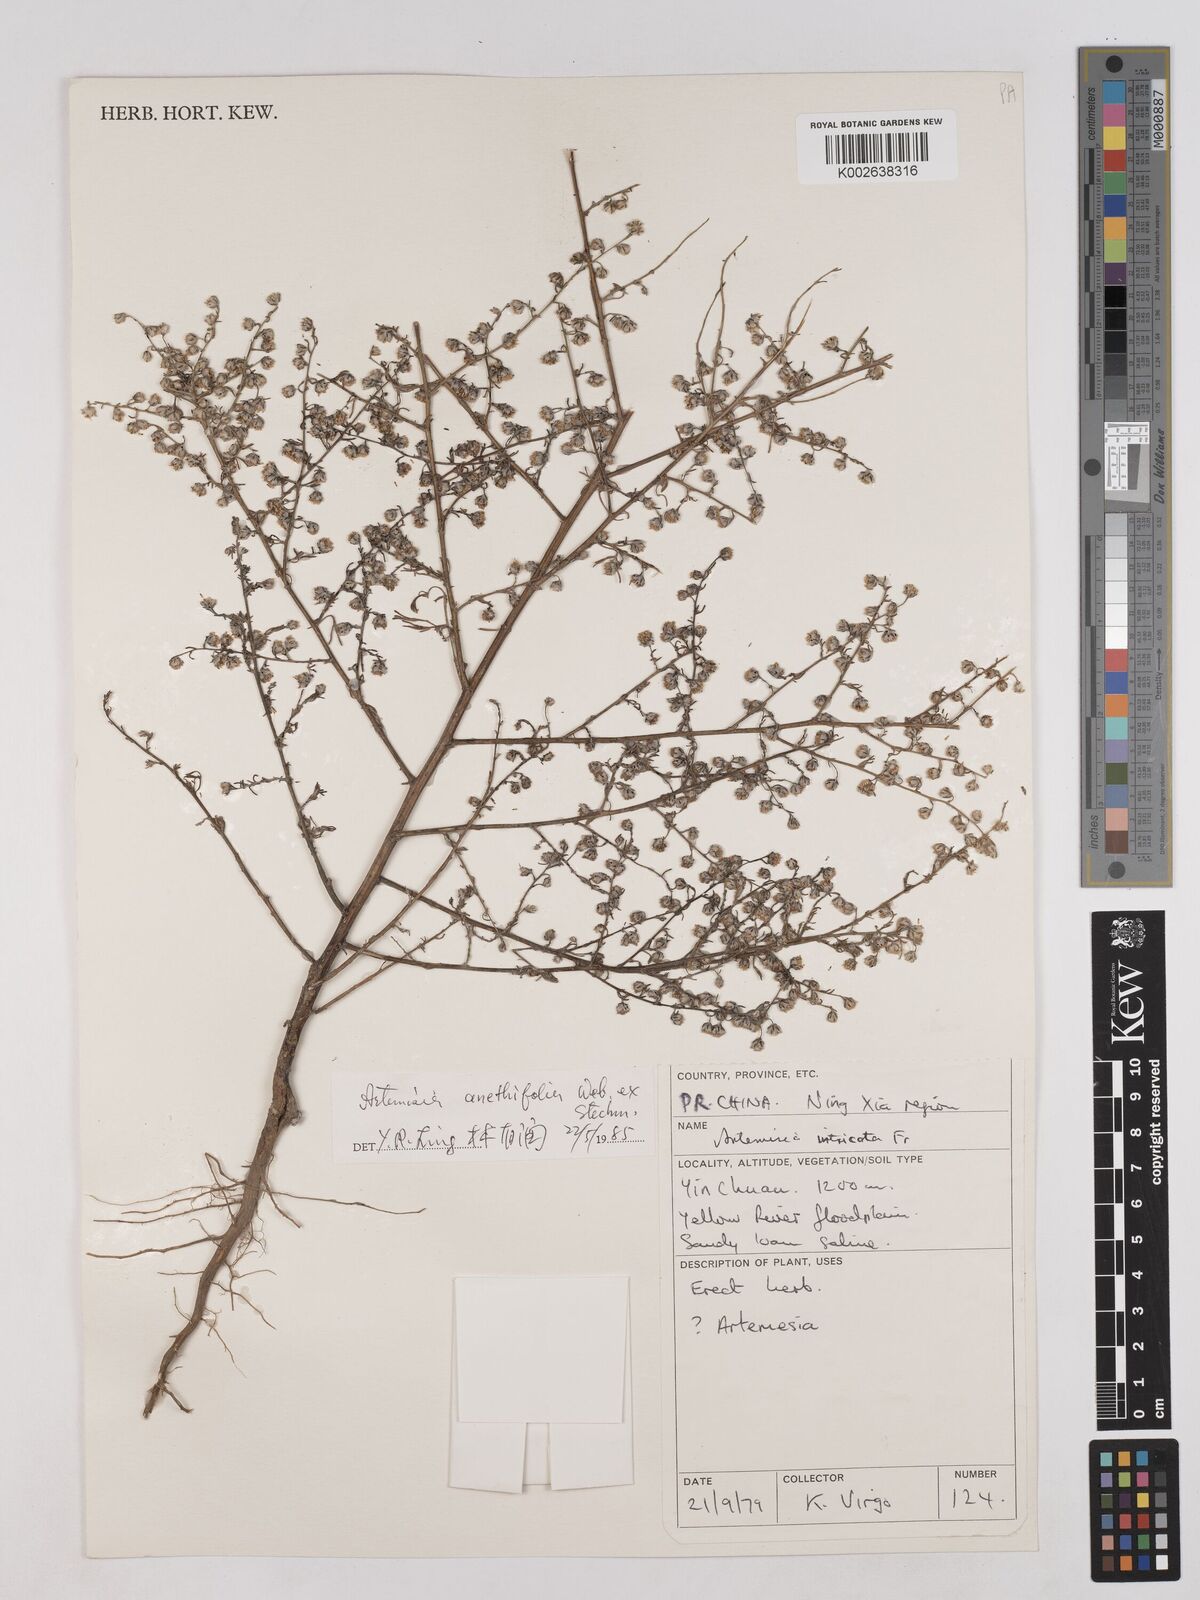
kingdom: Plantae
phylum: Tracheophyta
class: Magnoliopsida
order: Asterales
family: Asteraceae
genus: Artemisia
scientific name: Artemisia anethifolia
